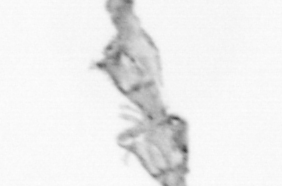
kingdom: Animalia
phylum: Cnidaria
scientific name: Cnidaria
